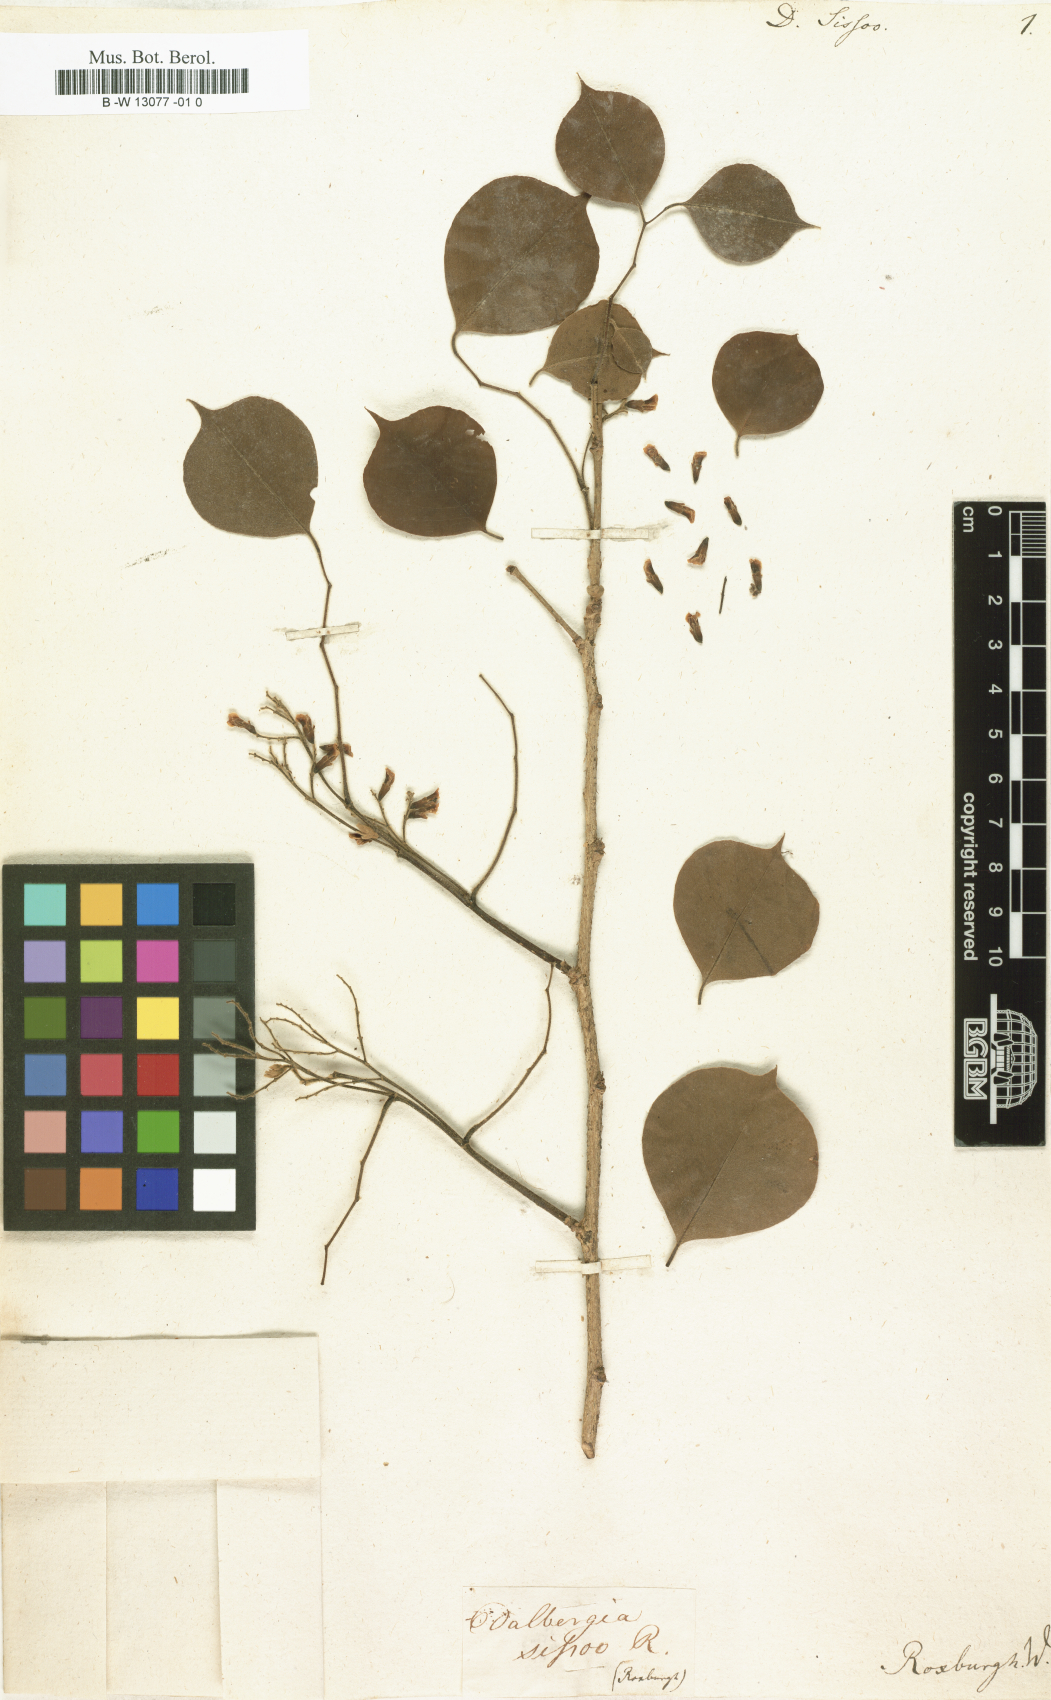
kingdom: Plantae
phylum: Tracheophyta
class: Magnoliopsida
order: Fabales
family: Fabaceae
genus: Dalbergia
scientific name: Dalbergia sissoo
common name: Indian rosewood
